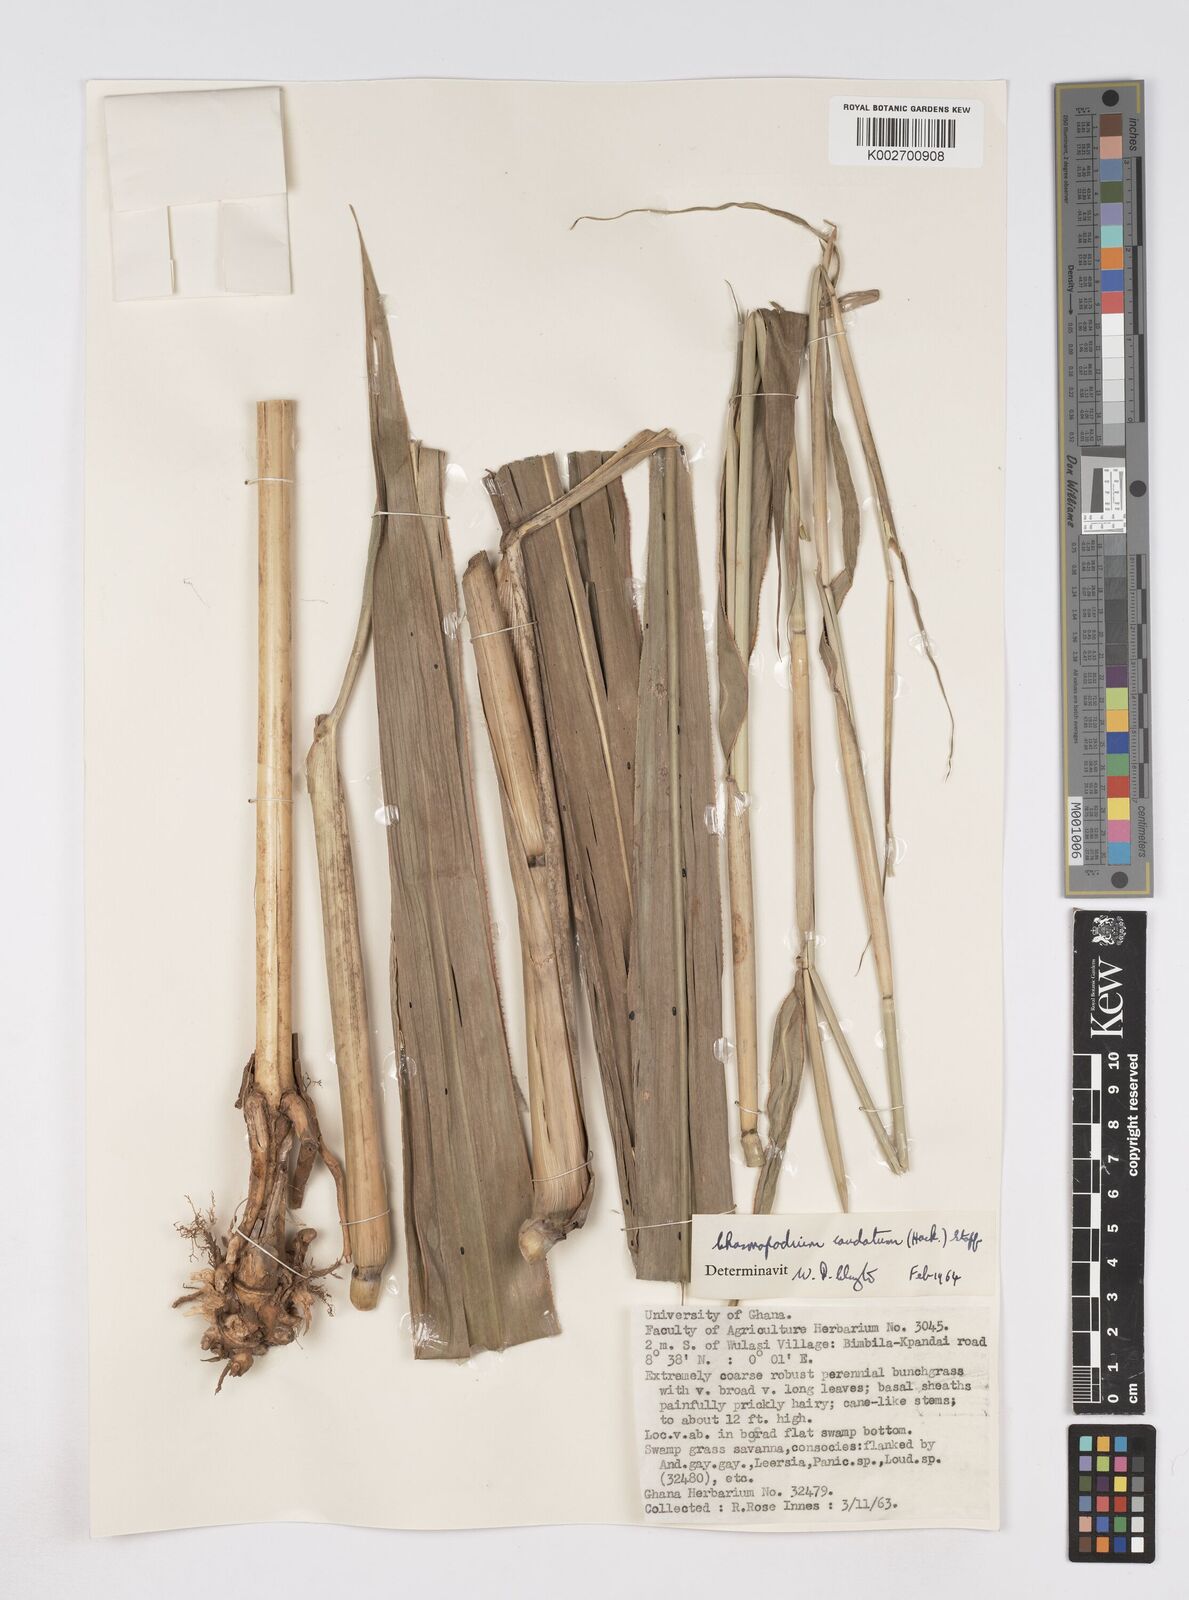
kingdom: Plantae
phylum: Tracheophyta
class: Liliopsida
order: Poales
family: Poaceae
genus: Chasmopodium
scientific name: Chasmopodium afzelii
